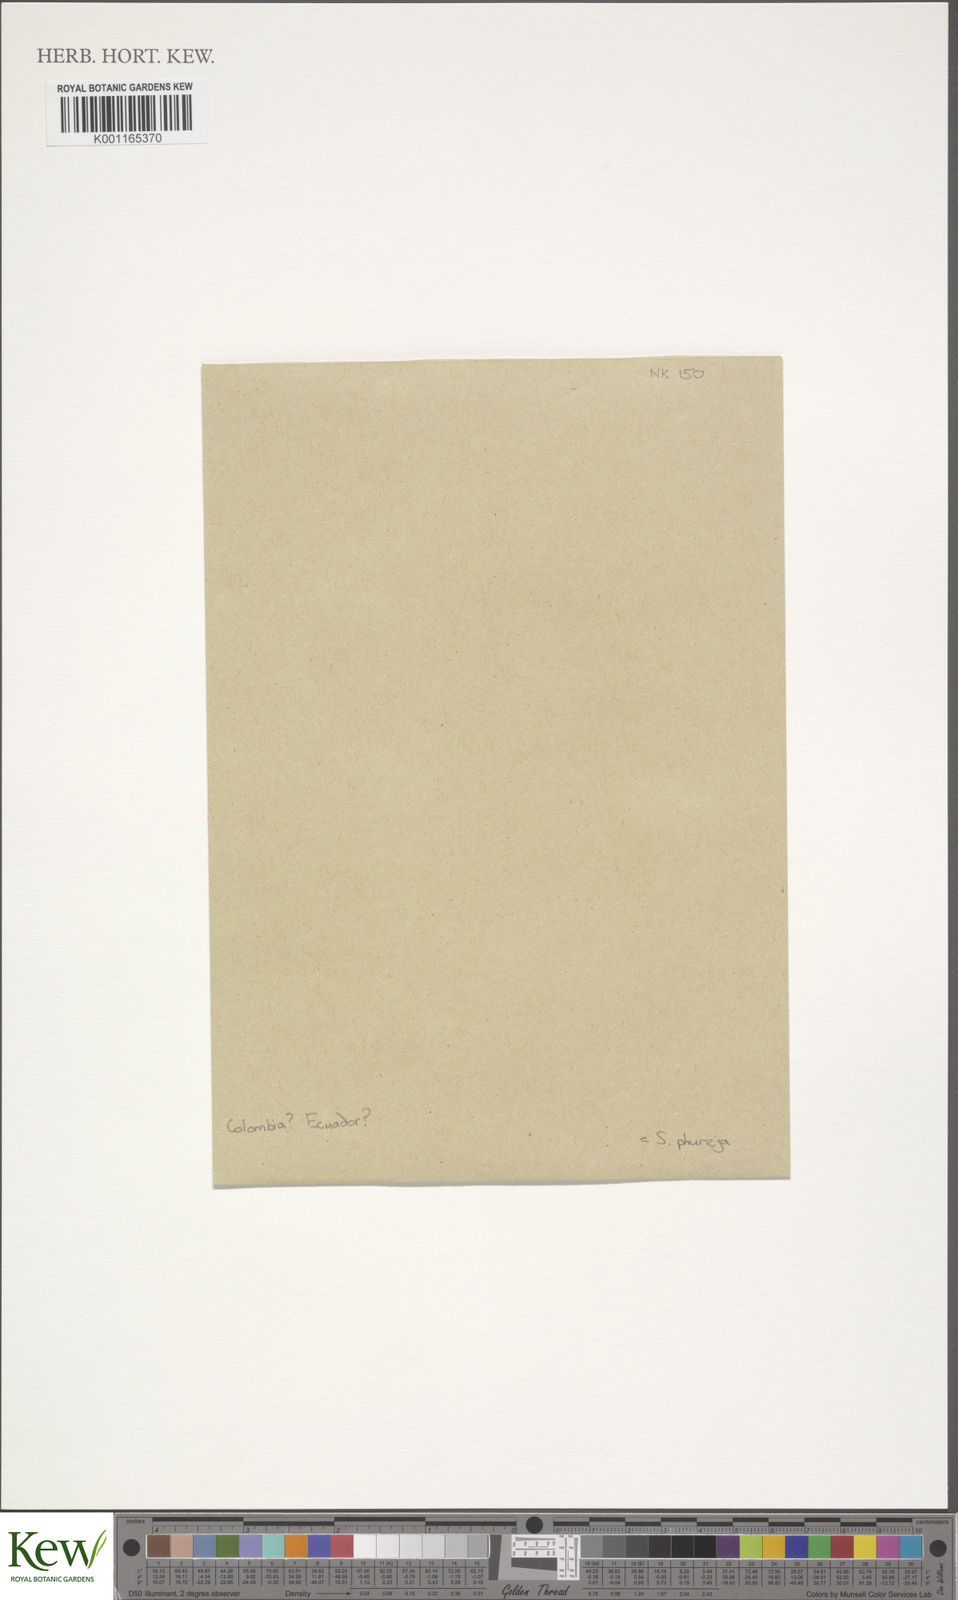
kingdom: Plantae
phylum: Tracheophyta
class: Magnoliopsida
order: Solanales
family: Solanaceae
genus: Solanum
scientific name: Solanum tuberosum
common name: Potato
